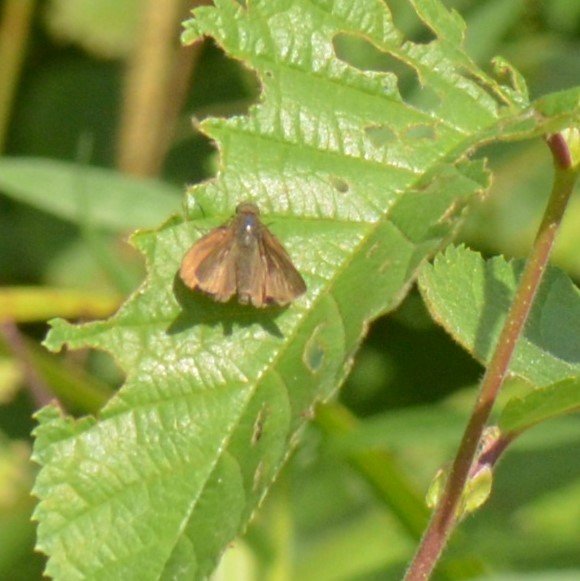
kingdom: Animalia
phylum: Arthropoda
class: Insecta
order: Lepidoptera
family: Hesperiidae
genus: Euphyes
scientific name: Euphyes vestris
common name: Dun Skipper
